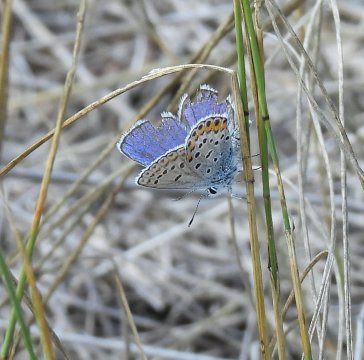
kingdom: Animalia
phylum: Arthropoda
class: Insecta
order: Lepidoptera
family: Lycaenidae
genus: Lycaeides
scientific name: Lycaeides melissa
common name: Melissa Blue
